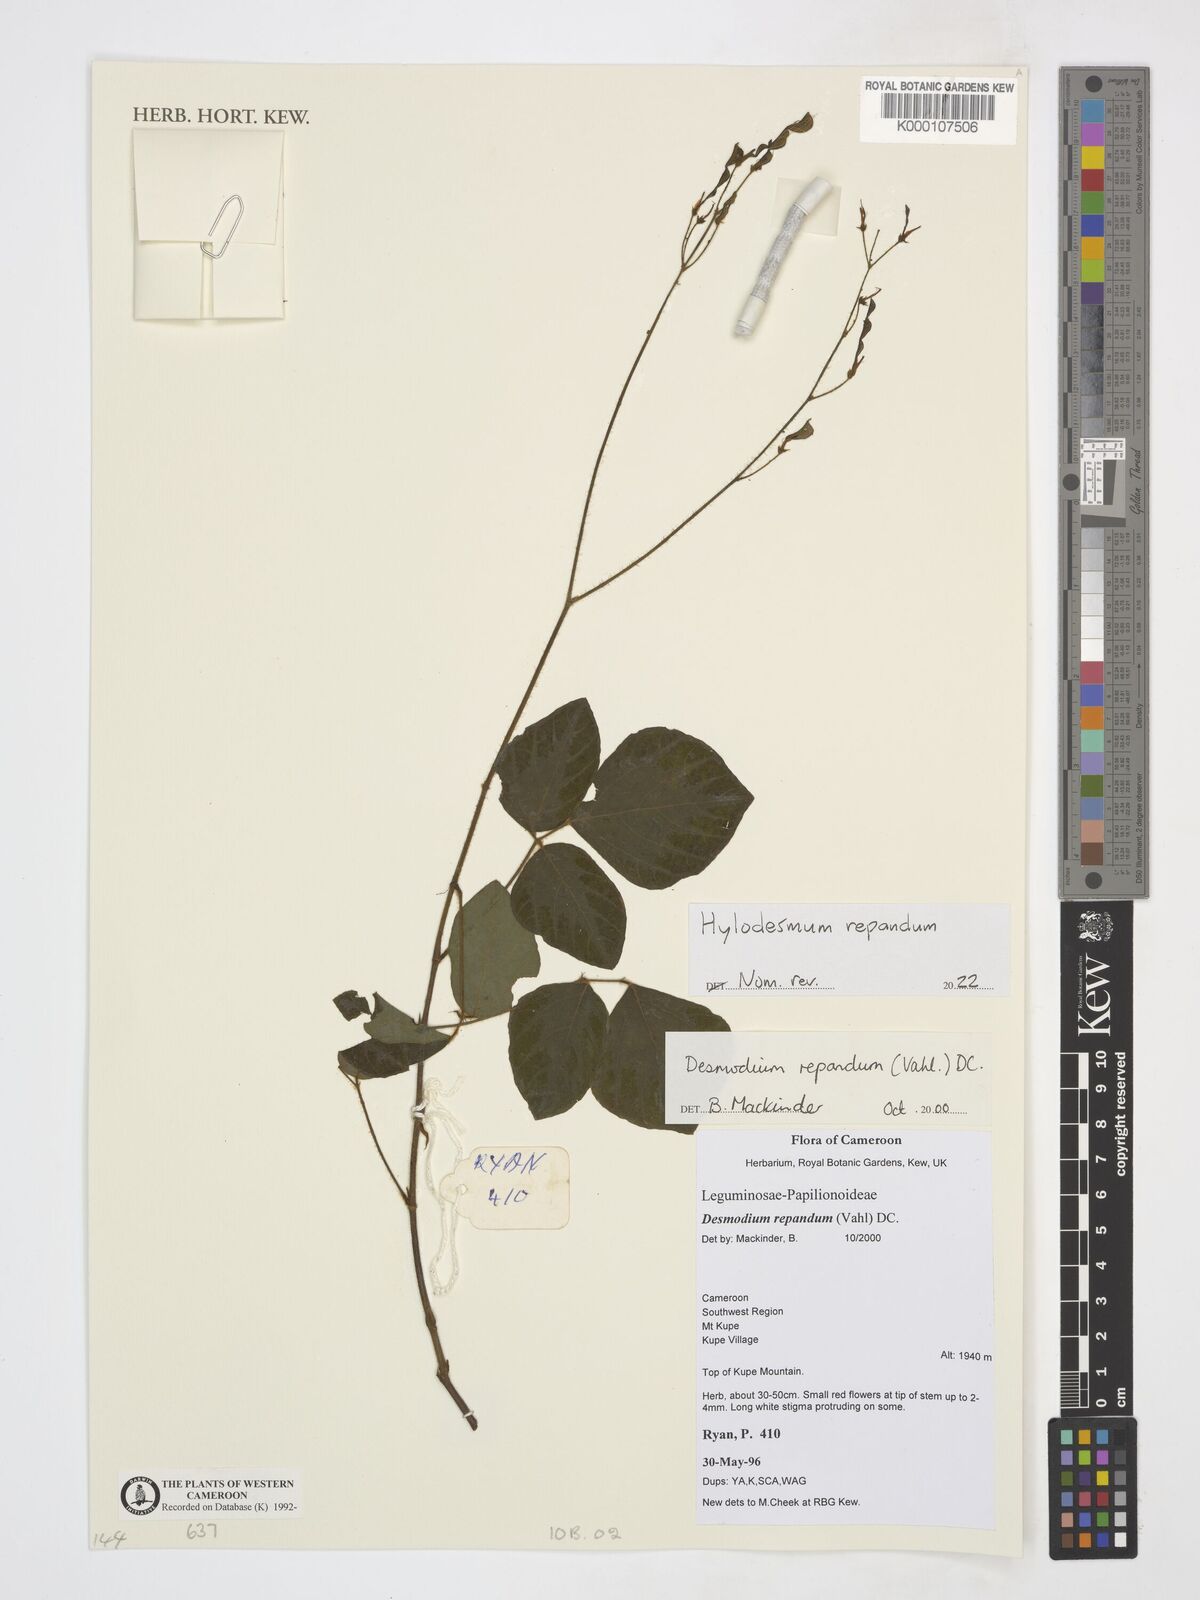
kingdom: Plantae
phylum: Tracheophyta
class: Magnoliopsida
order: Fabales
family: Fabaceae
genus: Desmodium
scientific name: Desmodium
